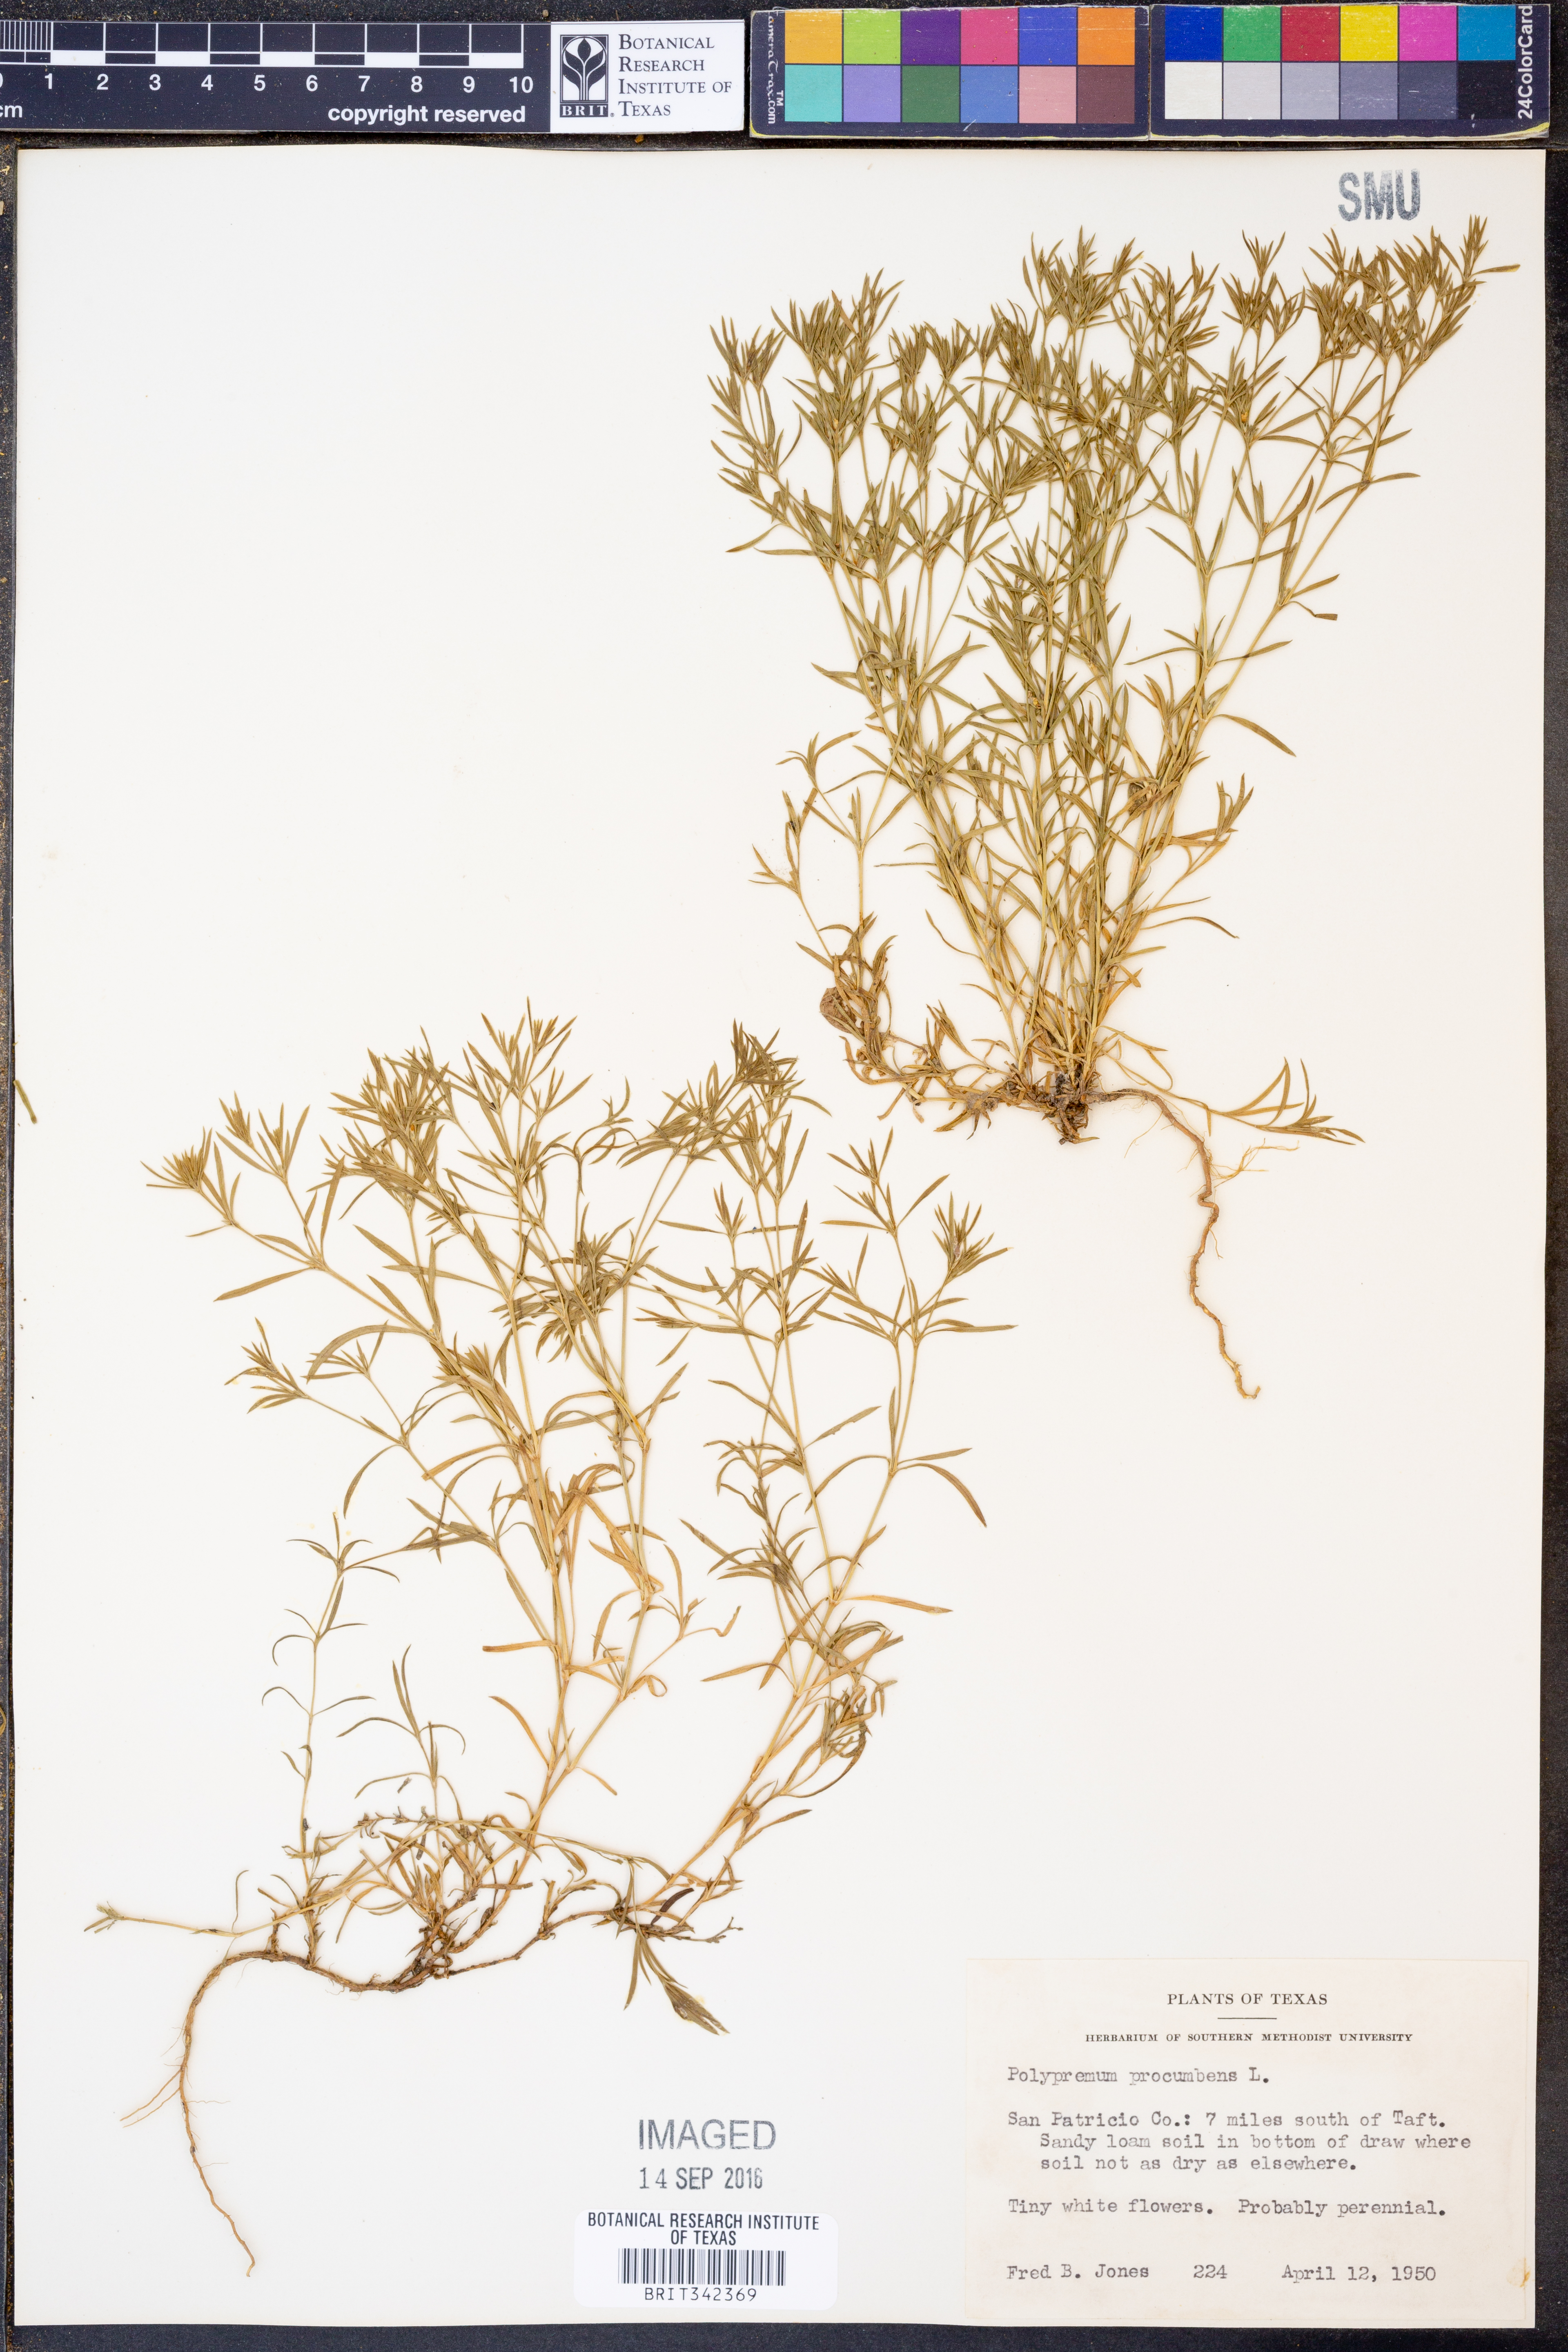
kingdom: Plantae
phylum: Tracheophyta
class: Magnoliopsida
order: Lamiales
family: Tetrachondraceae
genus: Polypremum
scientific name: Polypremum procumbens
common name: Juniper-leaf
